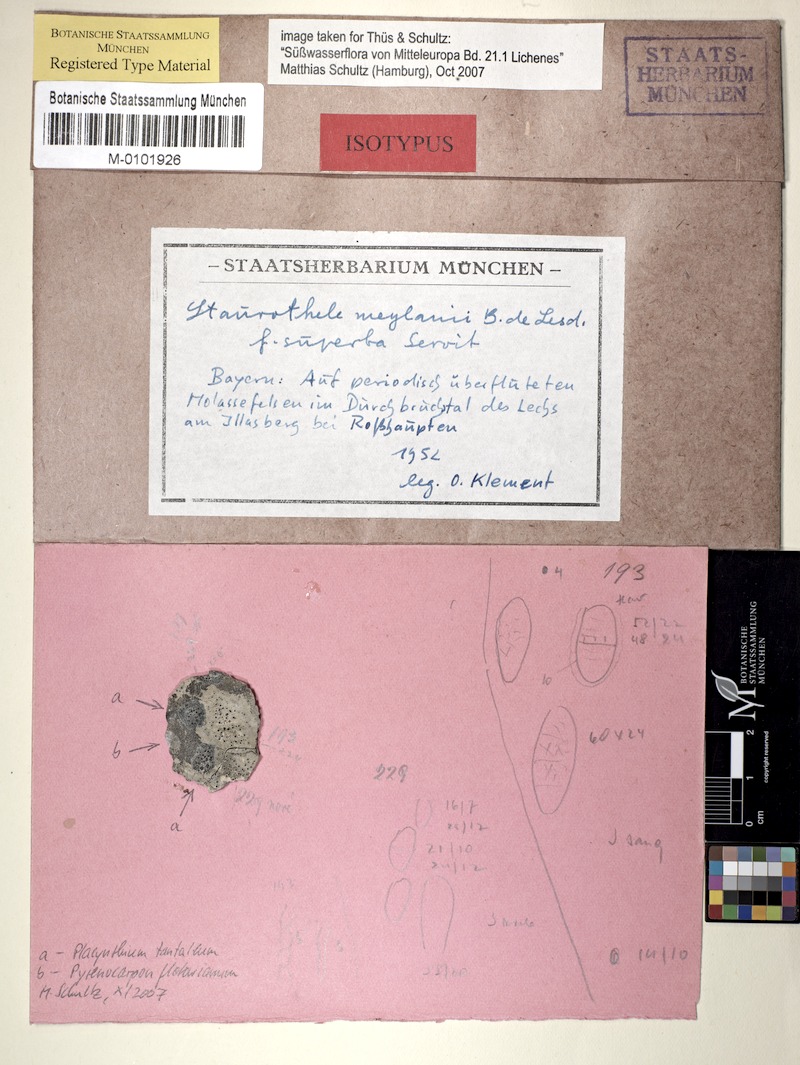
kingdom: Fungi
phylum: Ascomycota
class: Eurotiomycetes
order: Verrucariales
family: Verrucariaceae
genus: Staurothele
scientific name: Staurothele solvens
